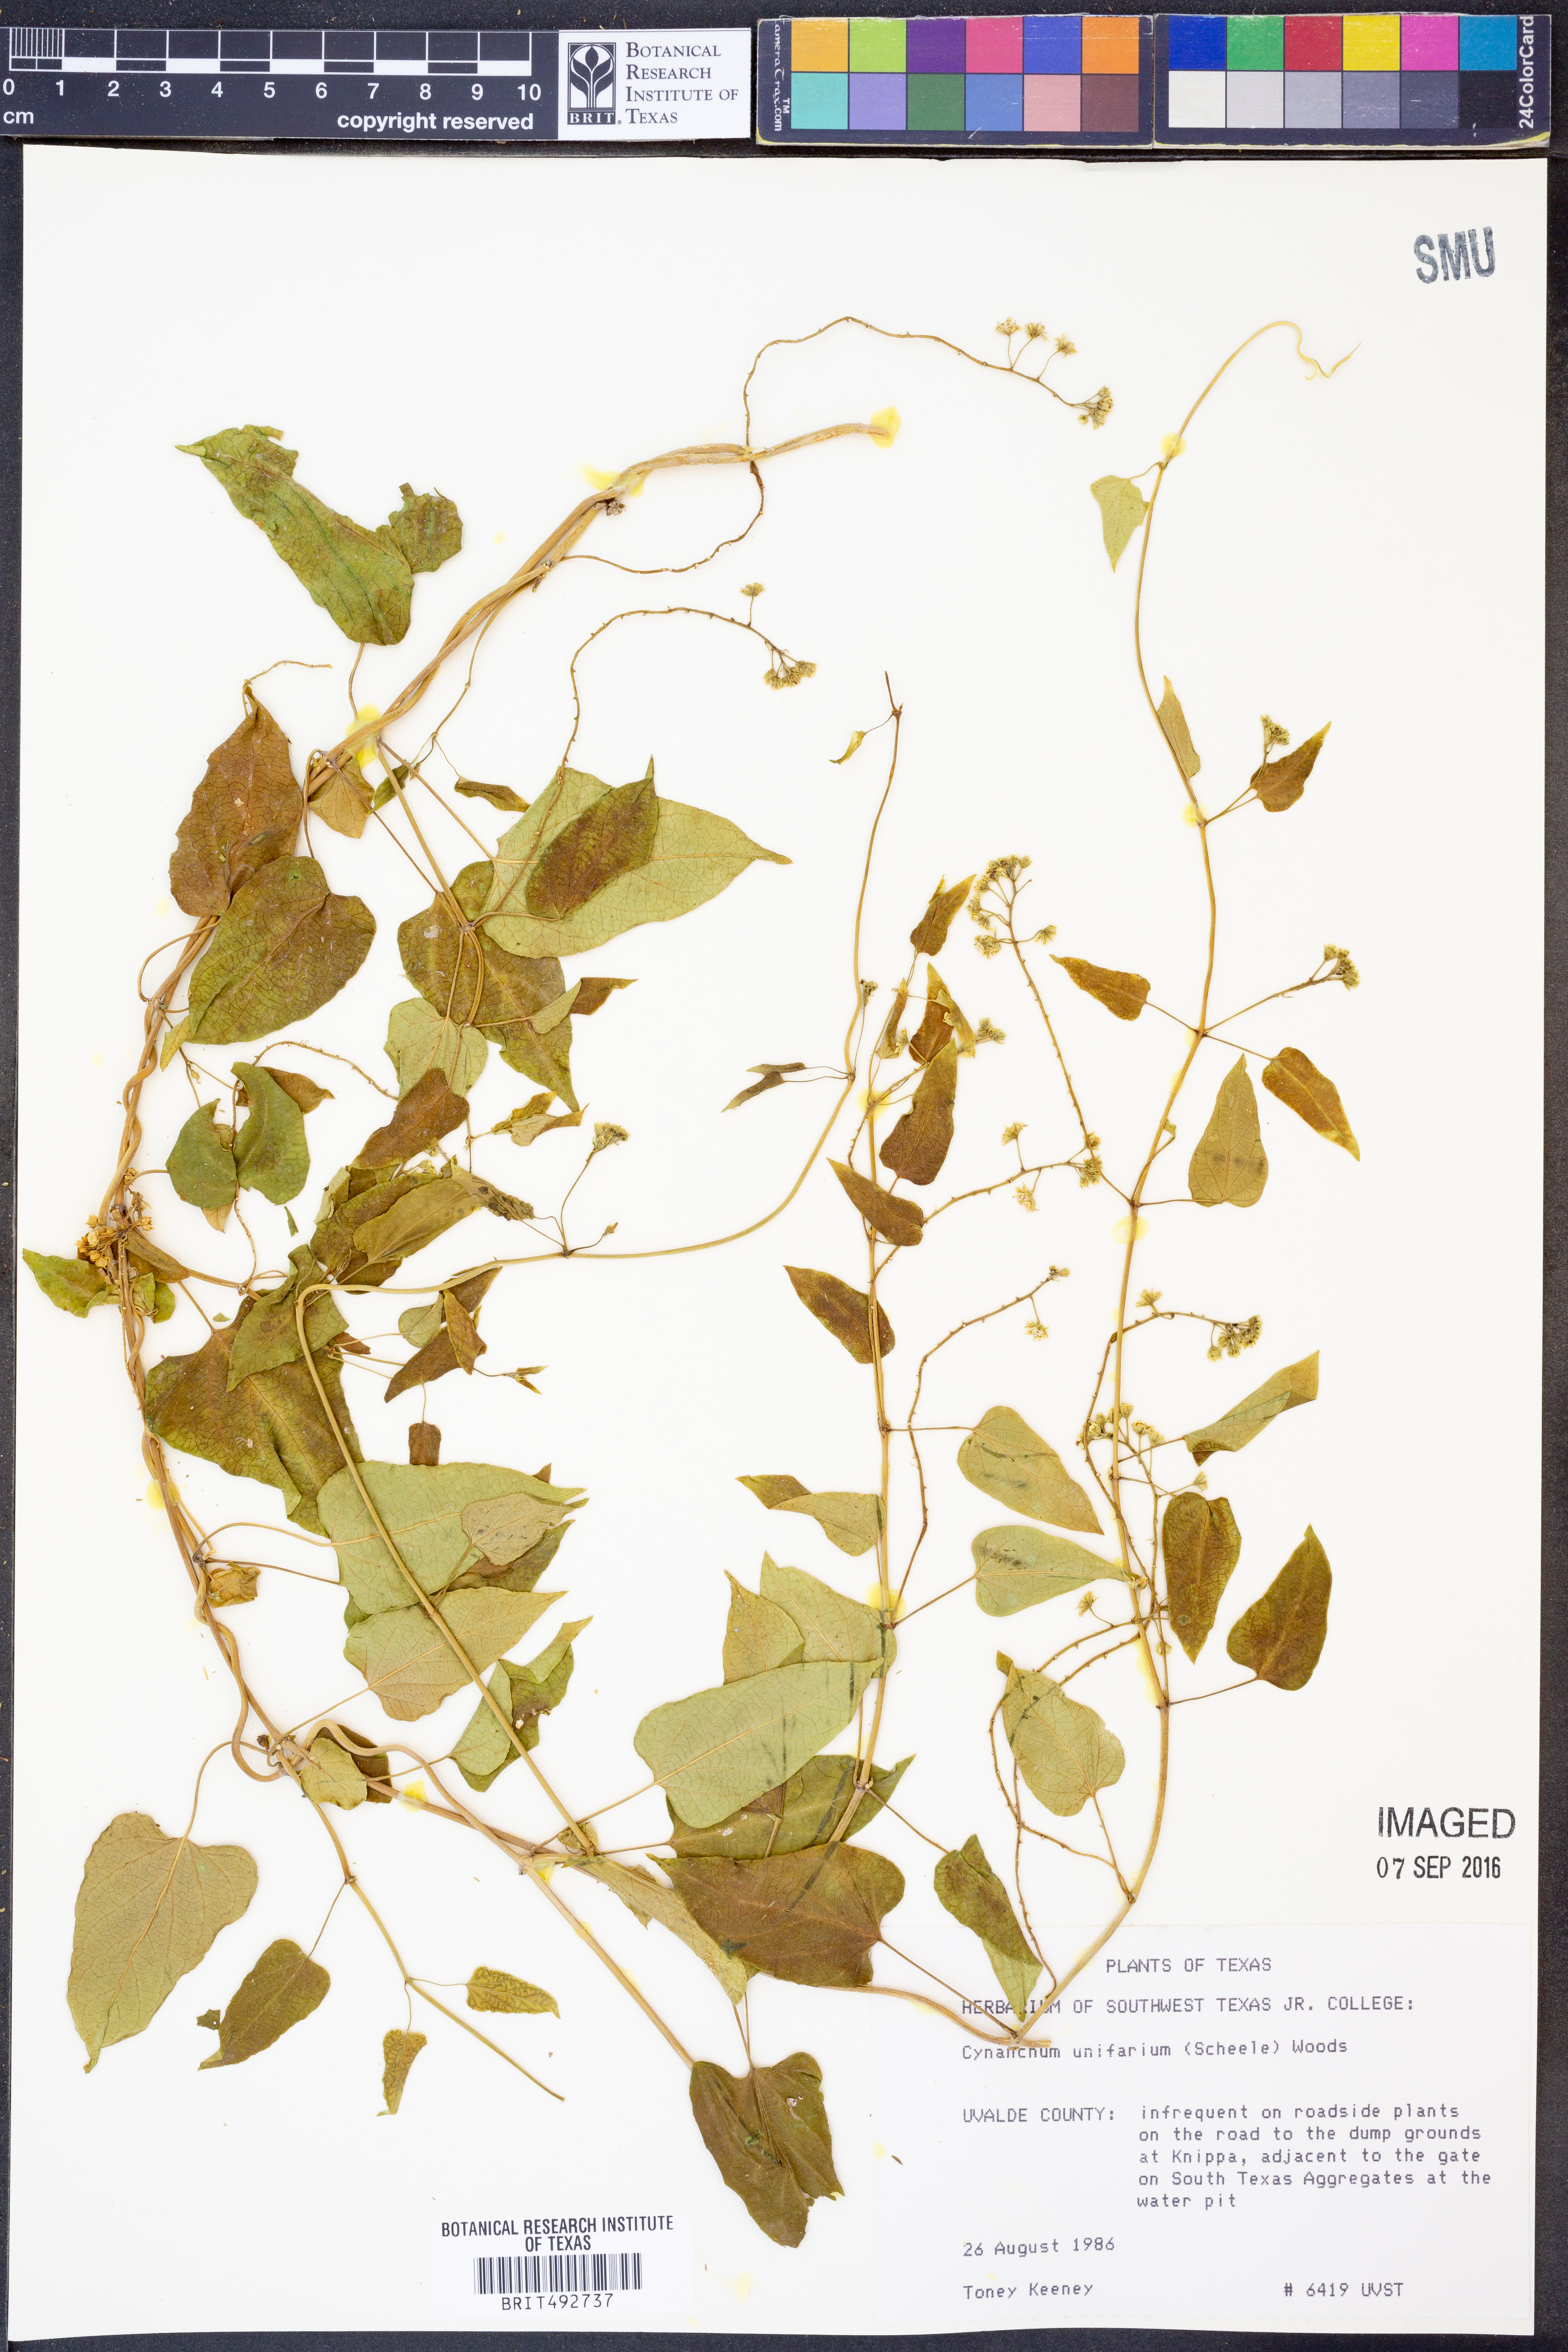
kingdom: Plantae
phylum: Tracheophyta
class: Magnoliopsida
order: Gentianales
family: Apocynaceae
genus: Cynanchum
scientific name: Cynanchum racemosum
